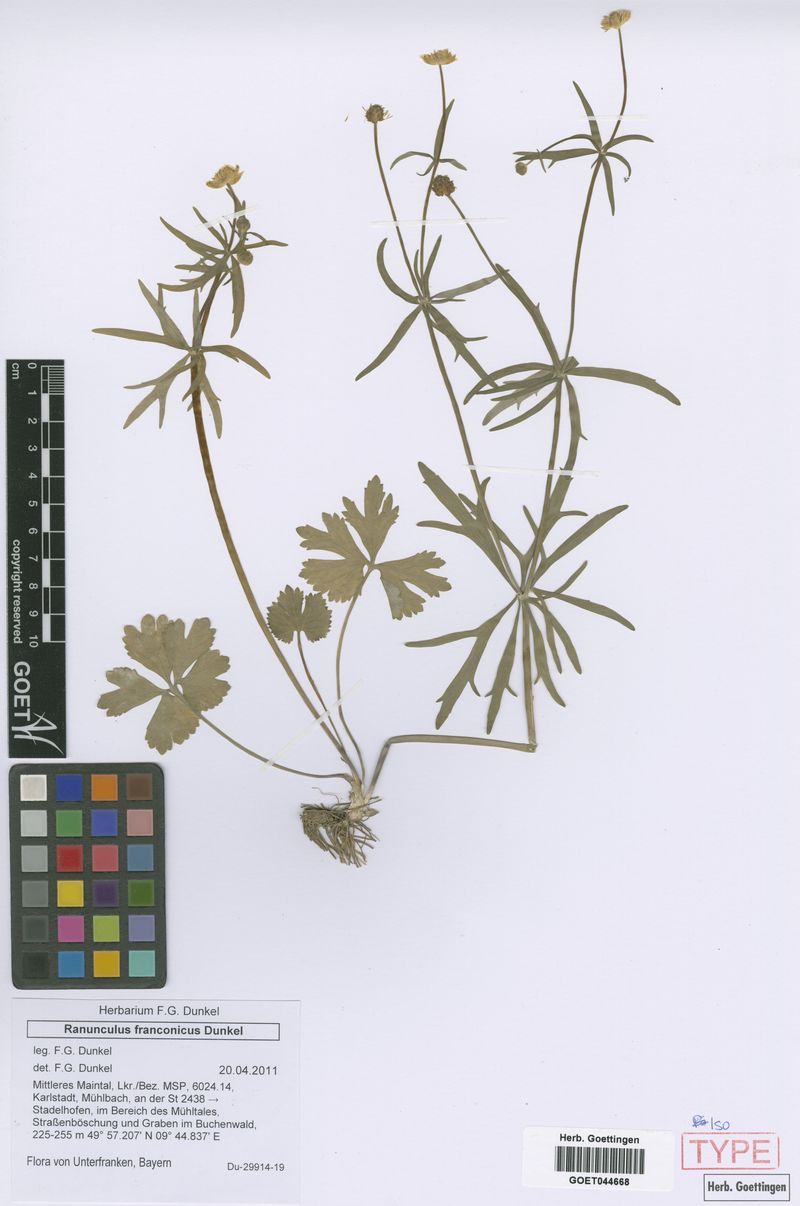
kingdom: Plantae
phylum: Tracheophyta
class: Magnoliopsida
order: Ranunculales
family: Ranunculaceae
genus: Ranunculus
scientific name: Ranunculus franconicus
